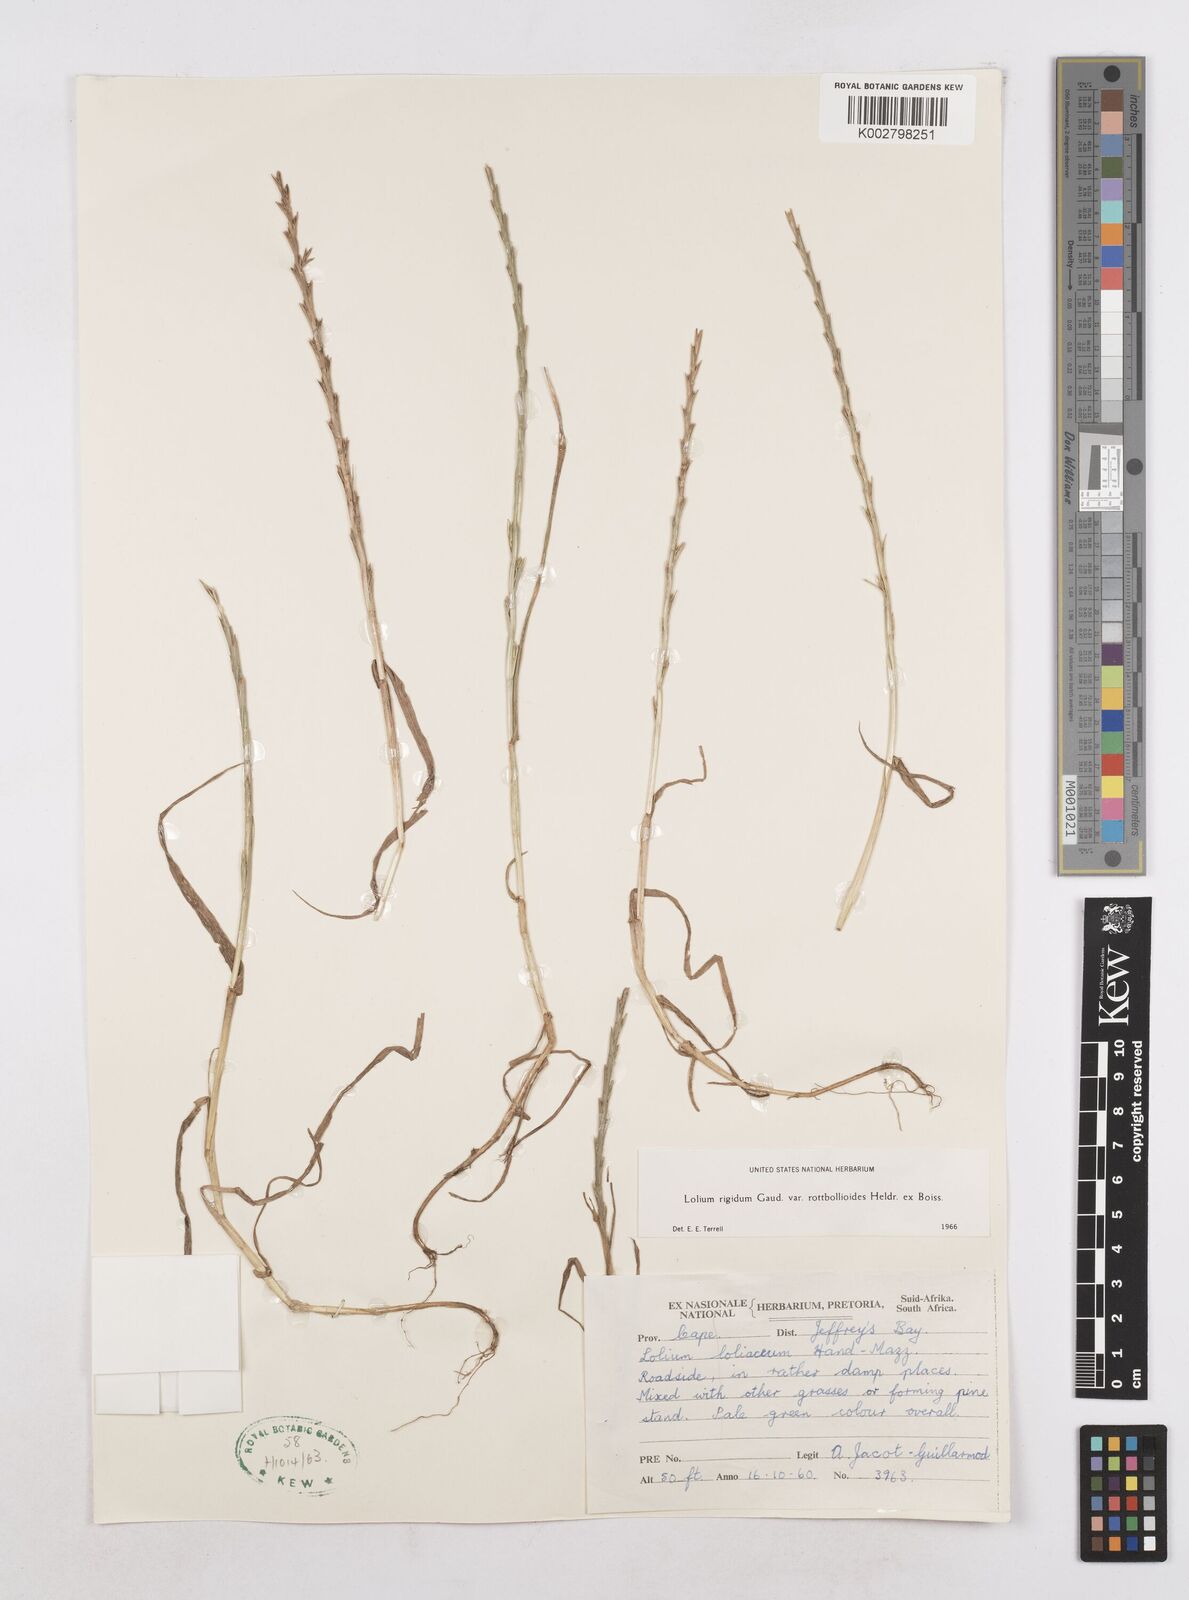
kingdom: Plantae
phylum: Tracheophyta
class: Liliopsida
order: Poales
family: Poaceae
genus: Lolium
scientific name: Lolium rigidum
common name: Wimmera ryegrass
